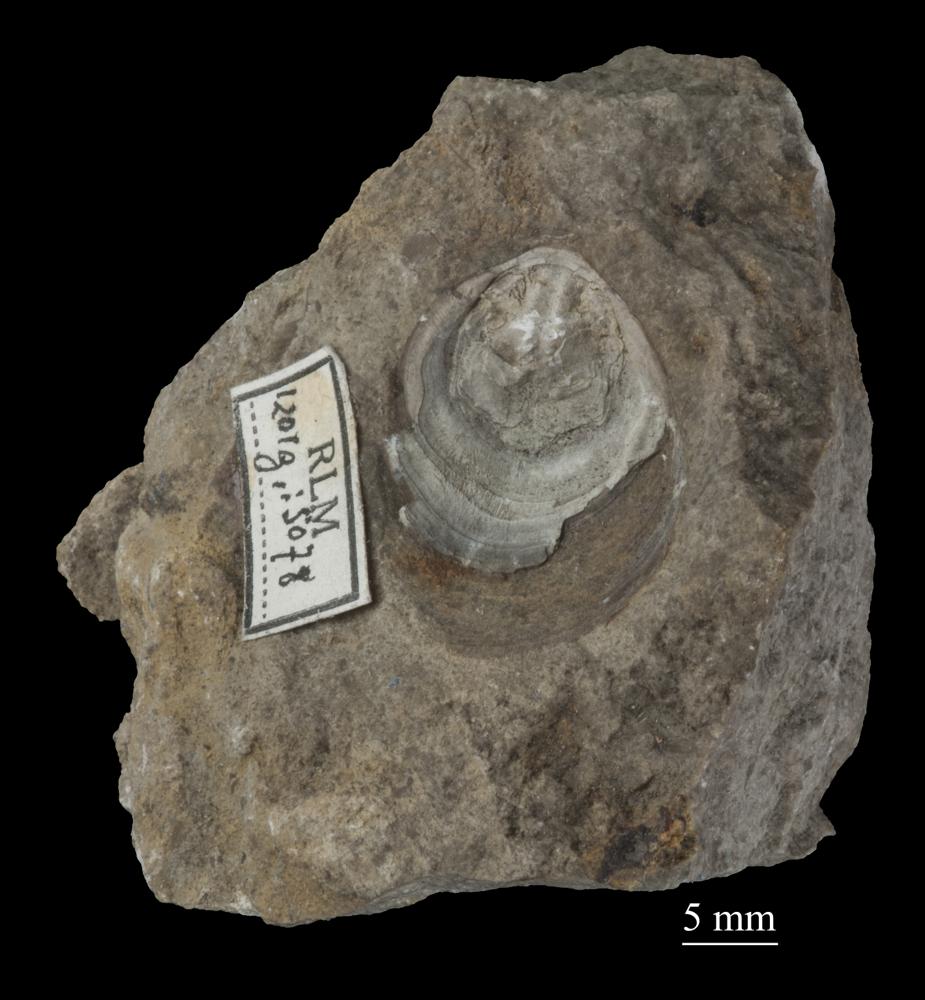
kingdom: Animalia
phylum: Brachiopoda
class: Lingulata
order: Siphonotretida
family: Siphonotretidae
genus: Siphonotreta
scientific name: Siphonotreta
